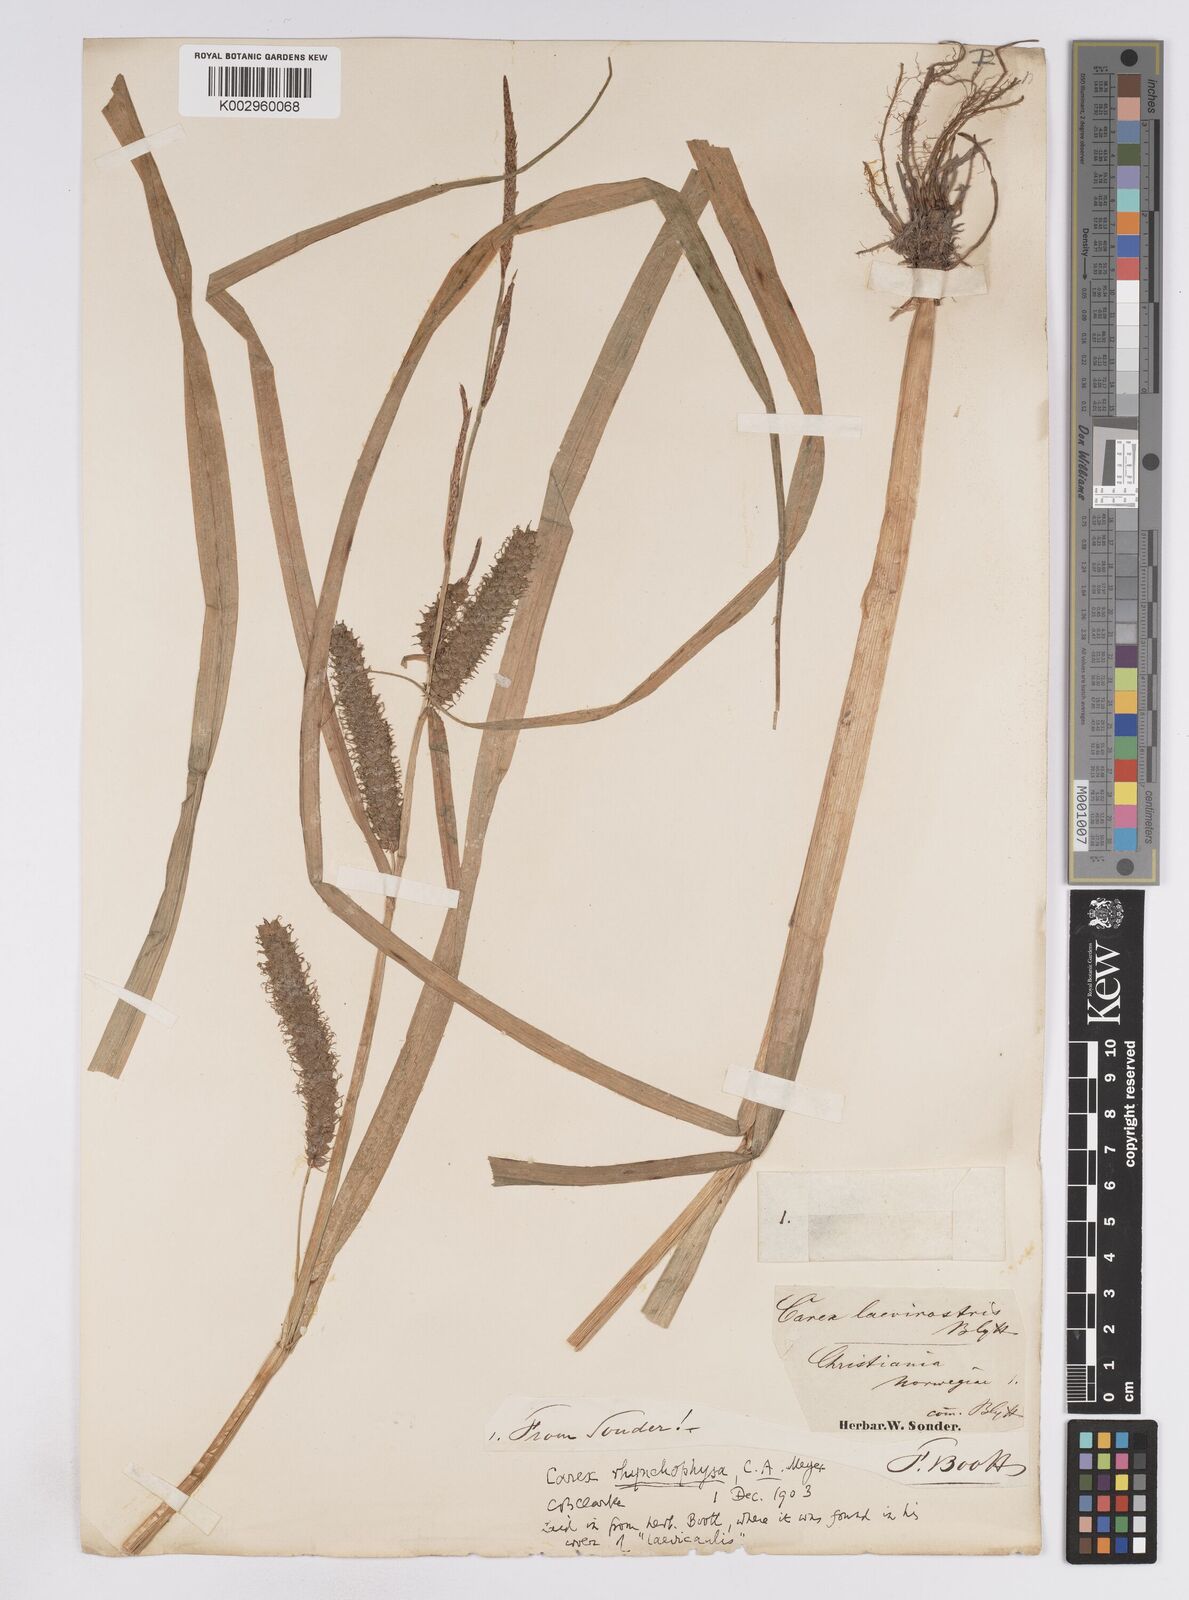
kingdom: Plantae
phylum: Tracheophyta
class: Liliopsida
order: Poales
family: Cyperaceae
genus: Carex
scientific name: Carex utriculata
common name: Beaked sedge
